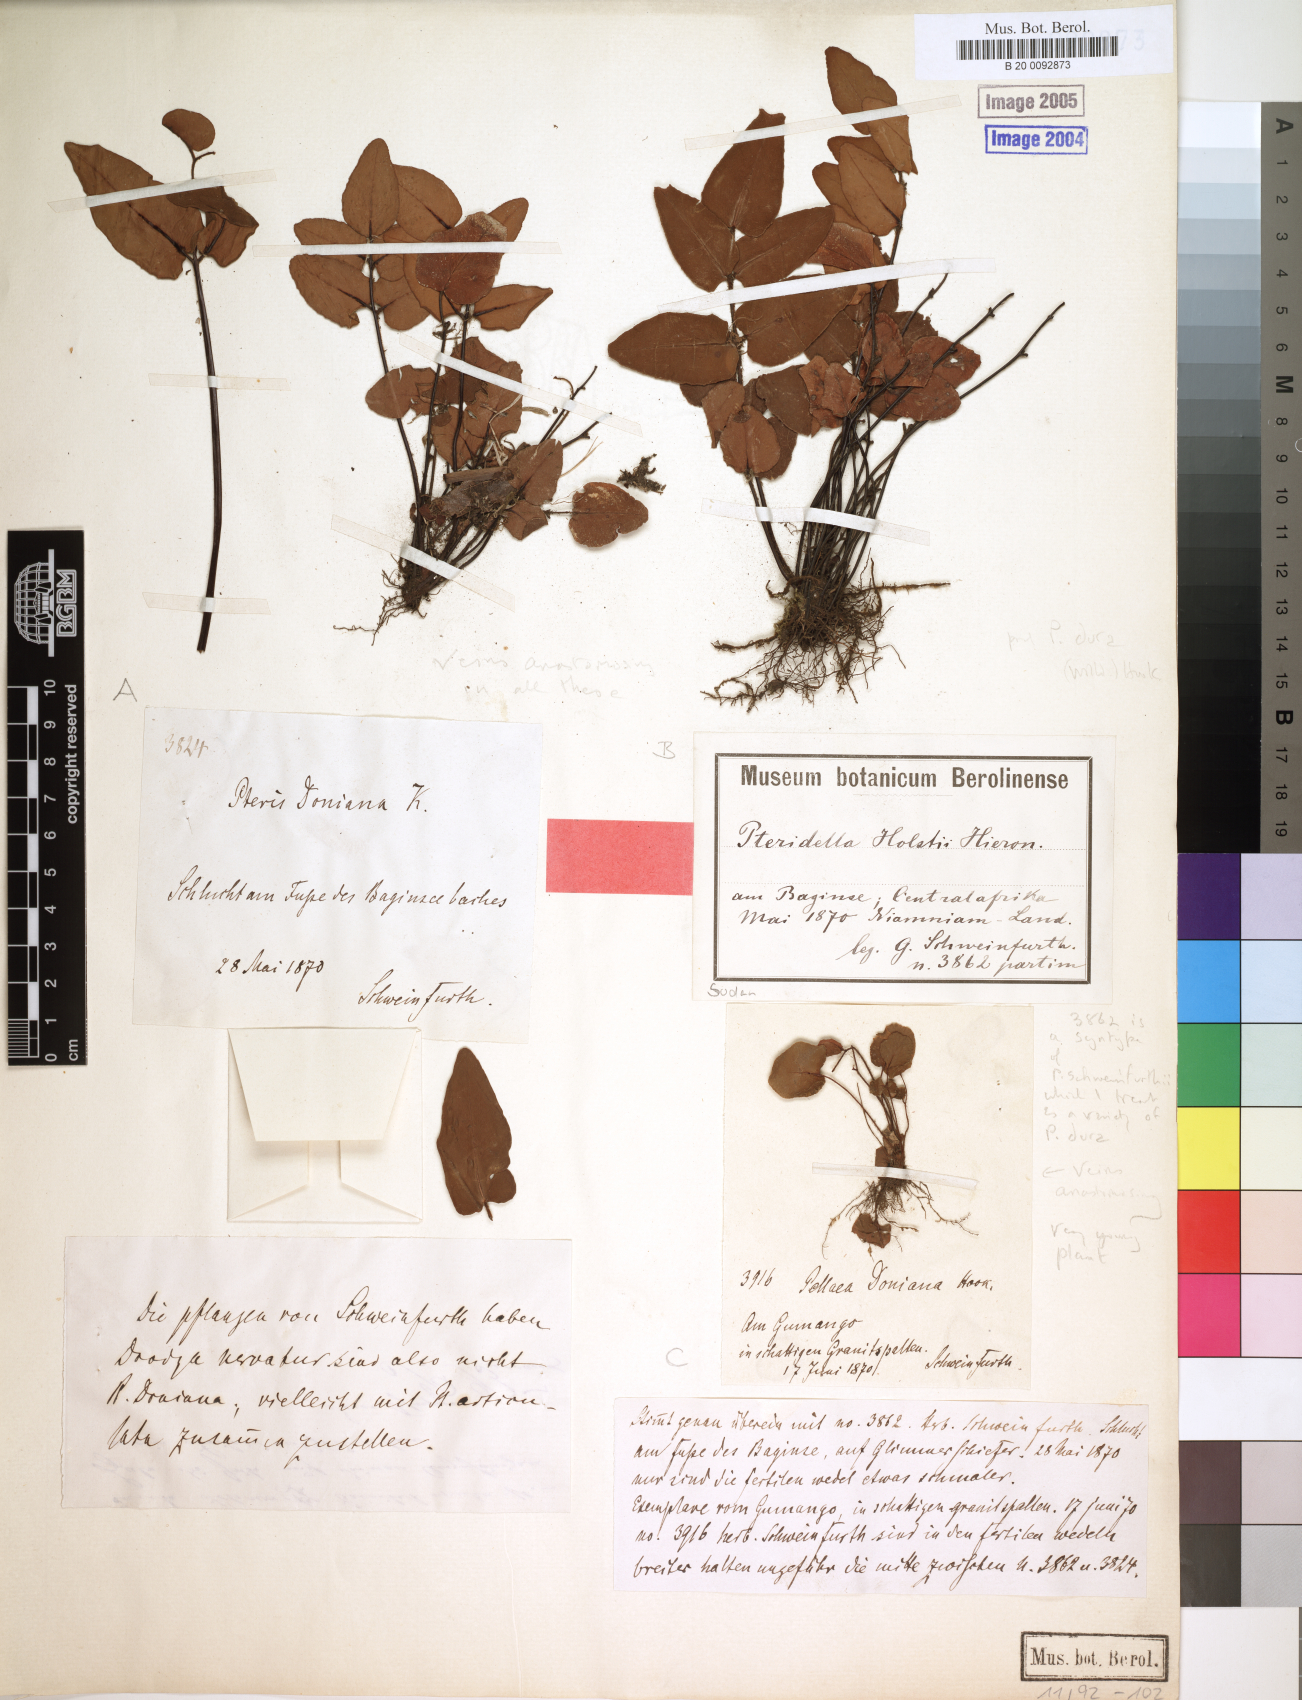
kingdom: Plantae
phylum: Tracheophyta
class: Polypodiopsida
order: Polypodiales
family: Pteridaceae
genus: Pellaea
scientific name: Pellaea dura
